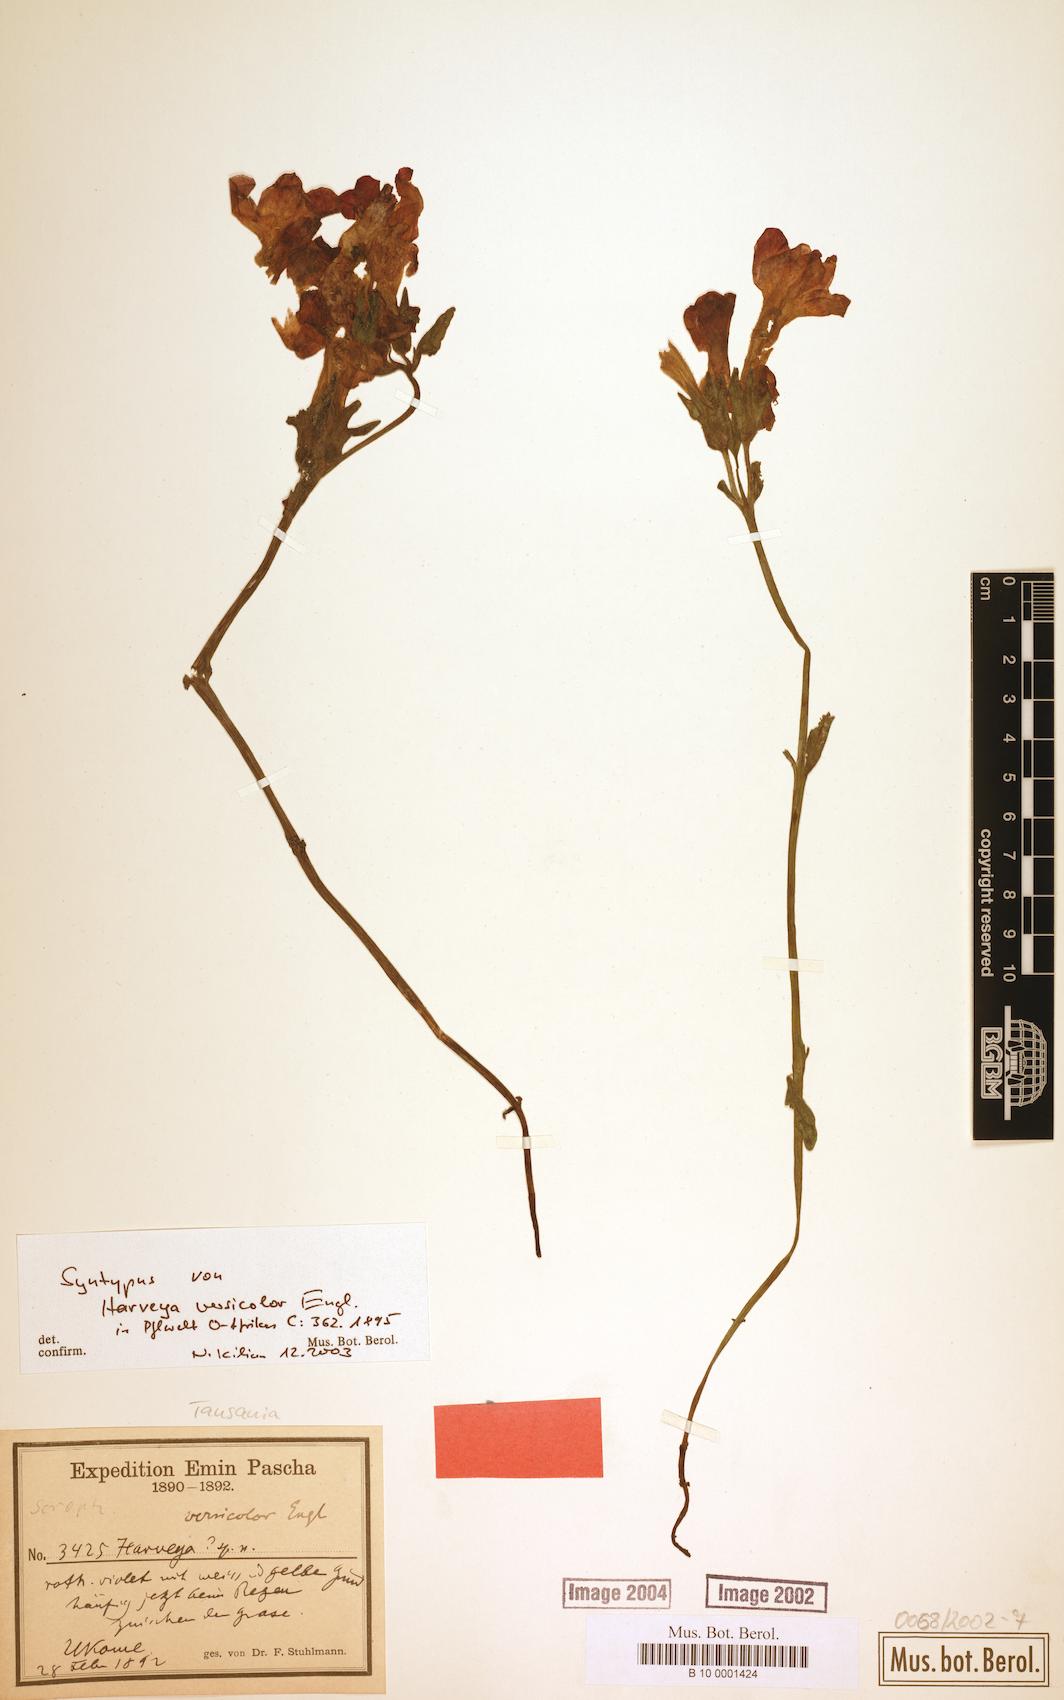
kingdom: Plantae
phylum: Tracheophyta
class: Magnoliopsida
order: Lamiales
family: Orobanchaceae
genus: Harveya
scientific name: Harveya versicolor
